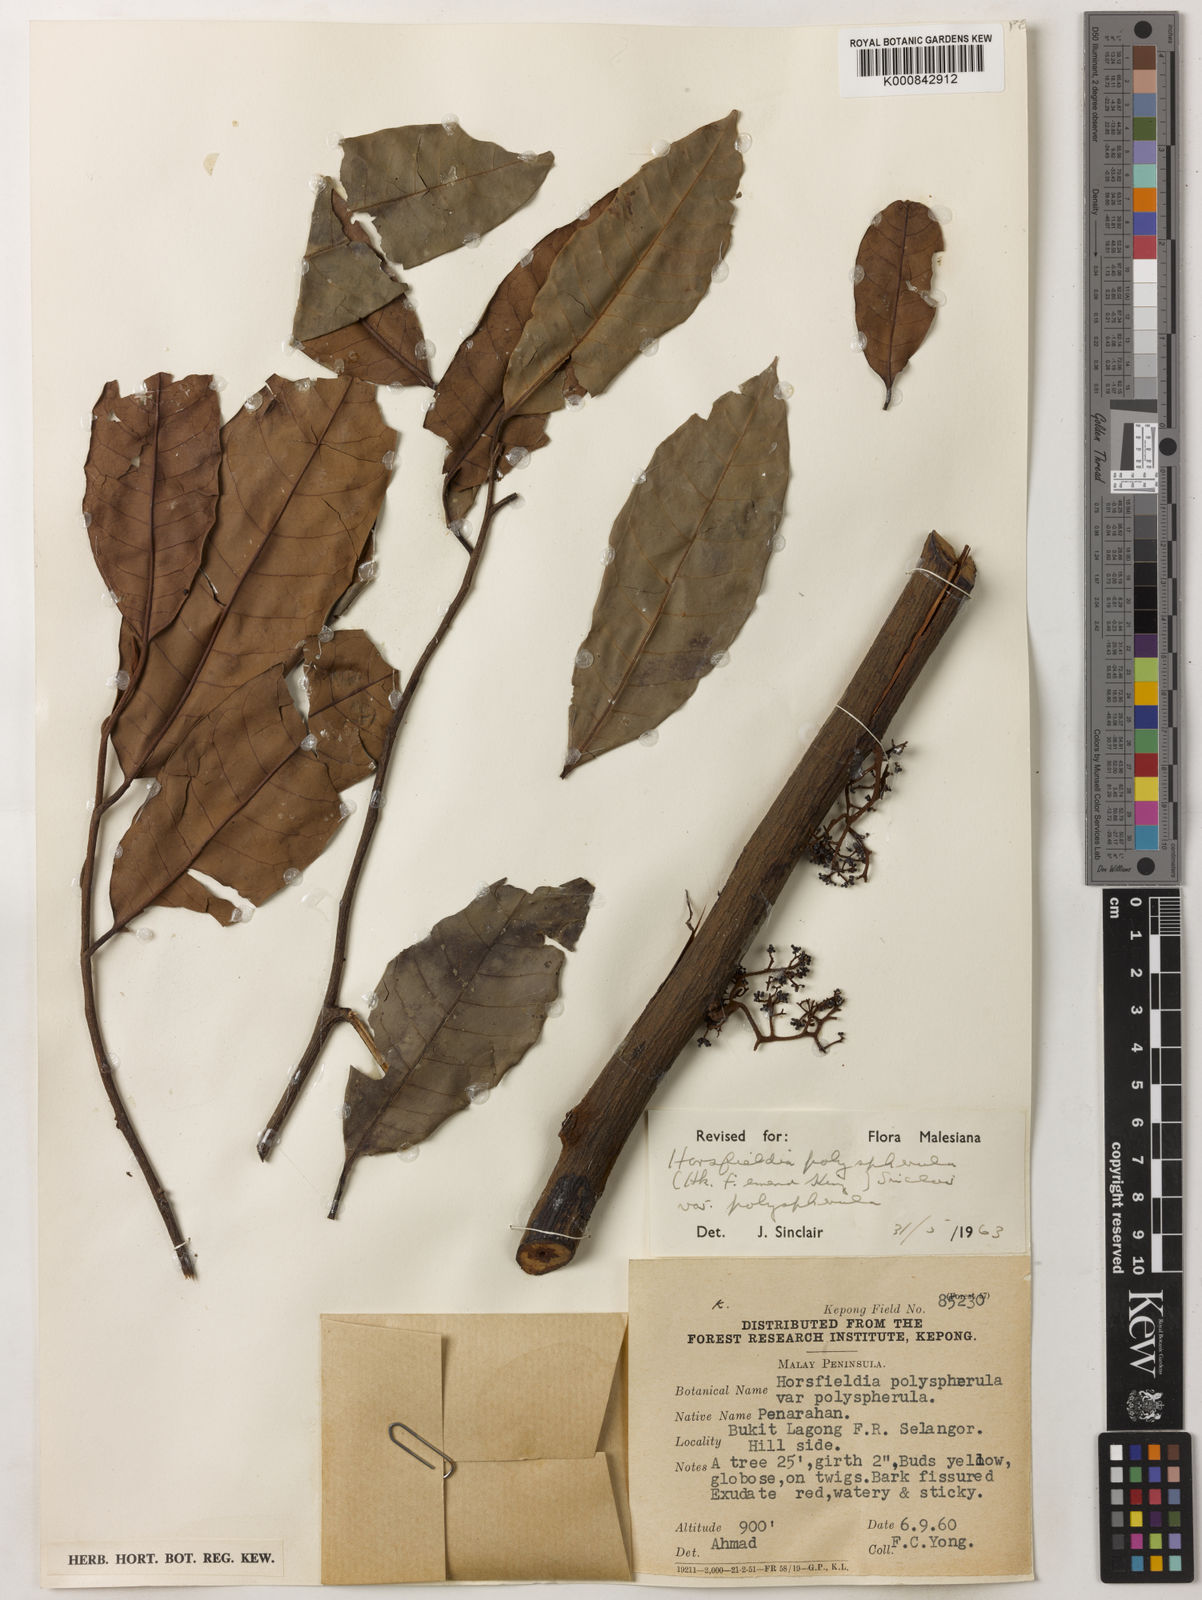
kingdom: Plantae
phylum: Tracheophyta
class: Magnoliopsida
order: Magnoliales
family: Myristicaceae
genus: Horsfieldia
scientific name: Horsfieldia
